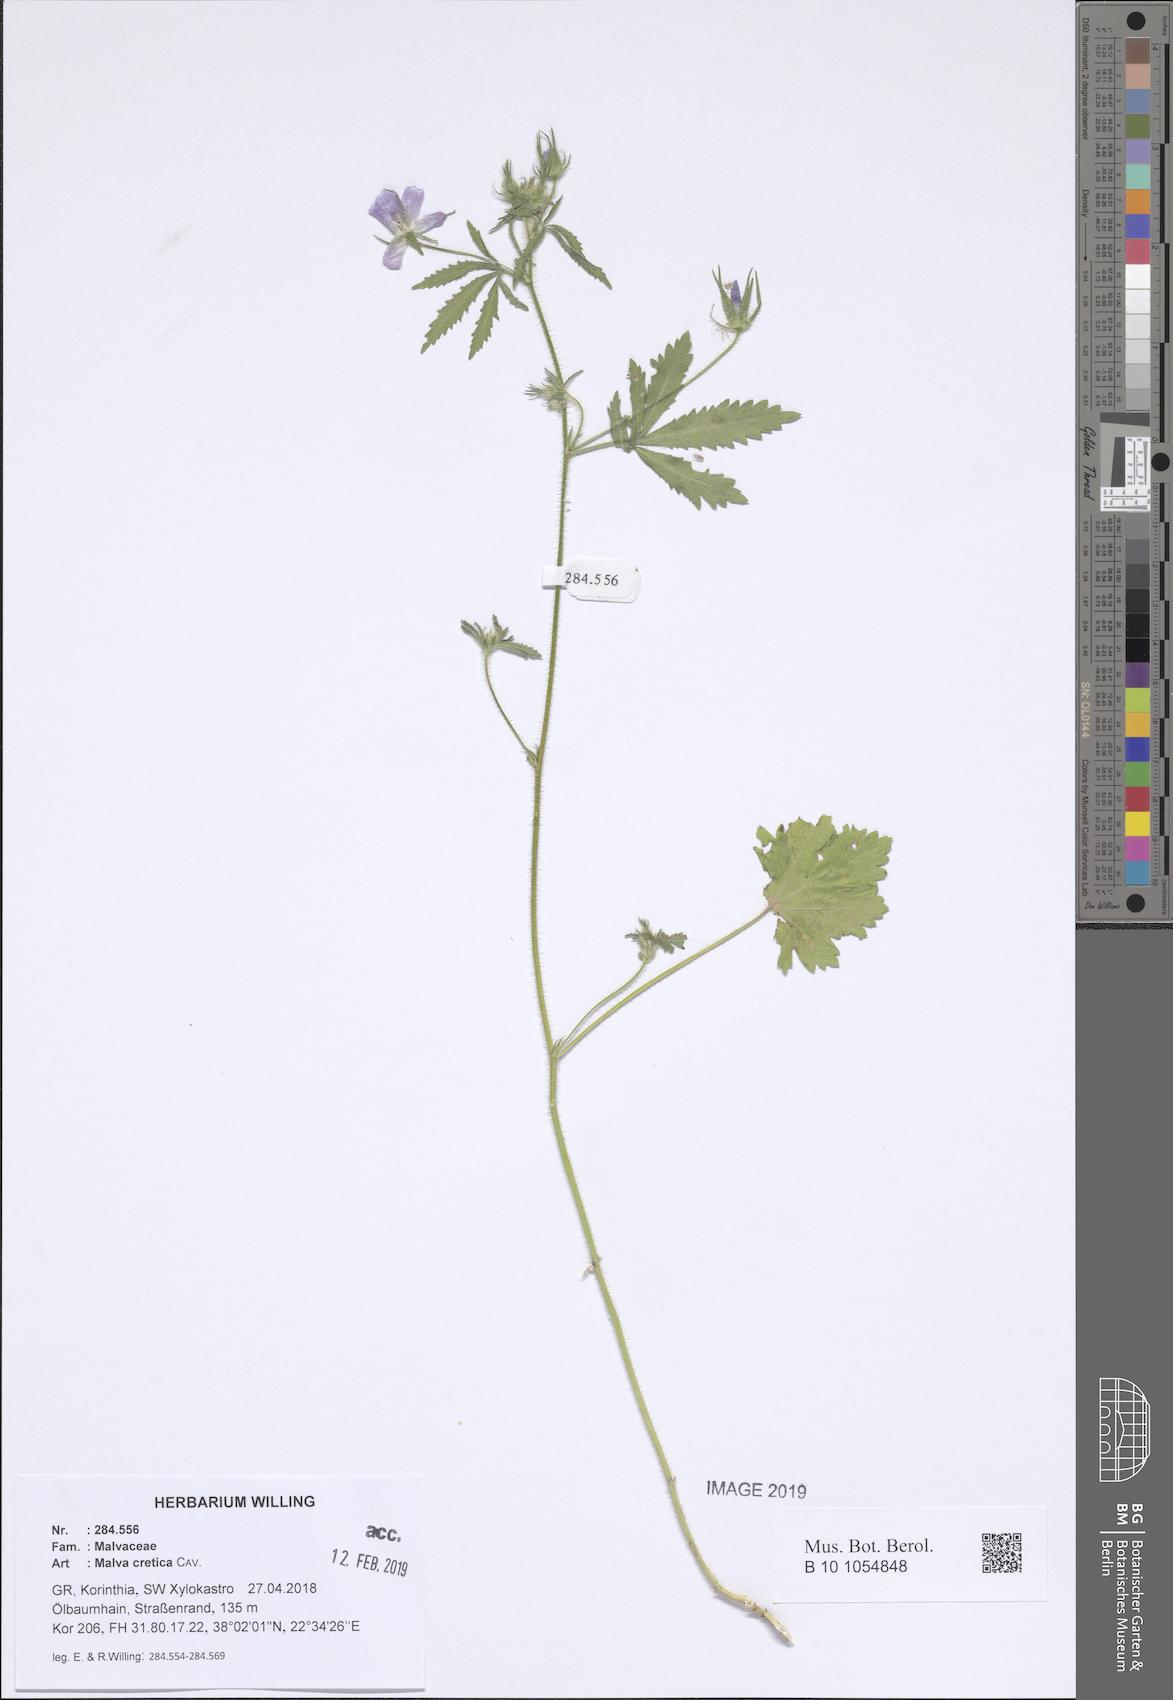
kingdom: Plantae
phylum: Tracheophyta
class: Magnoliopsida
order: Malvales
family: Malvaceae
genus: Malva
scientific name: Malva cretica
